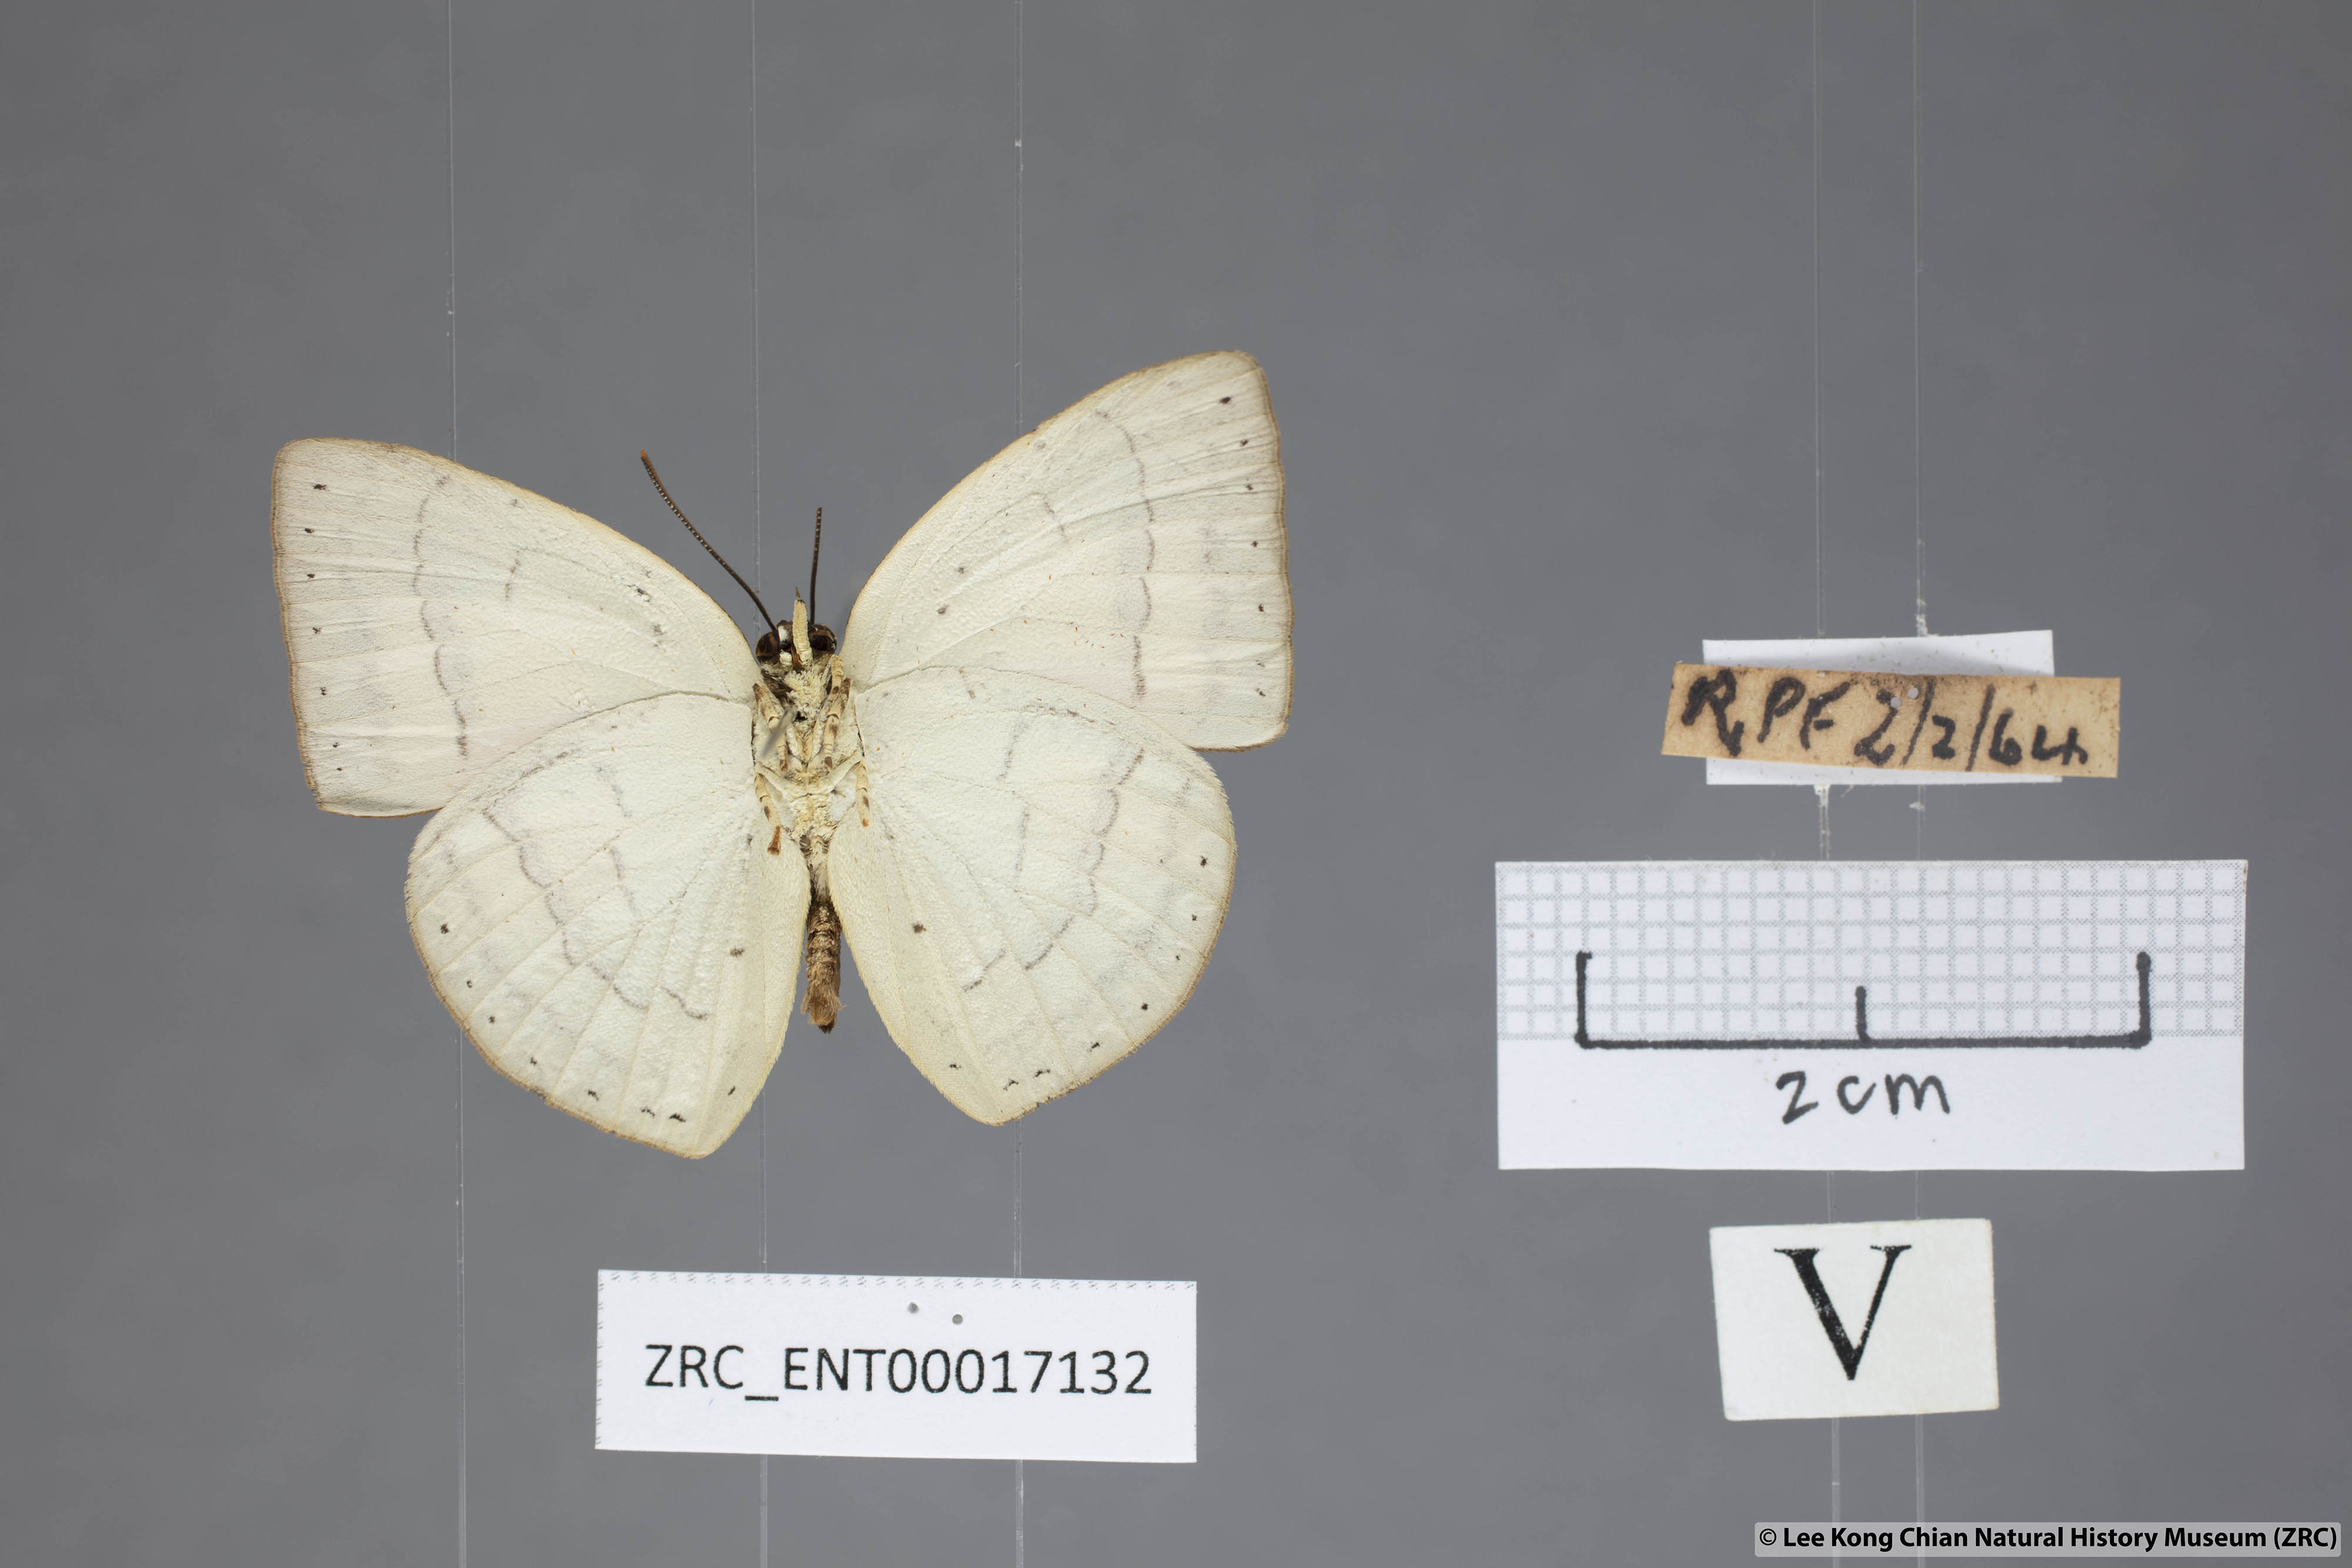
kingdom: Animalia
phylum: Arthropoda
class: Insecta
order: Lepidoptera
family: Lycaenidae
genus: Curetis
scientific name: Curetis insularis
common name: Narrow-banded sunbeam
